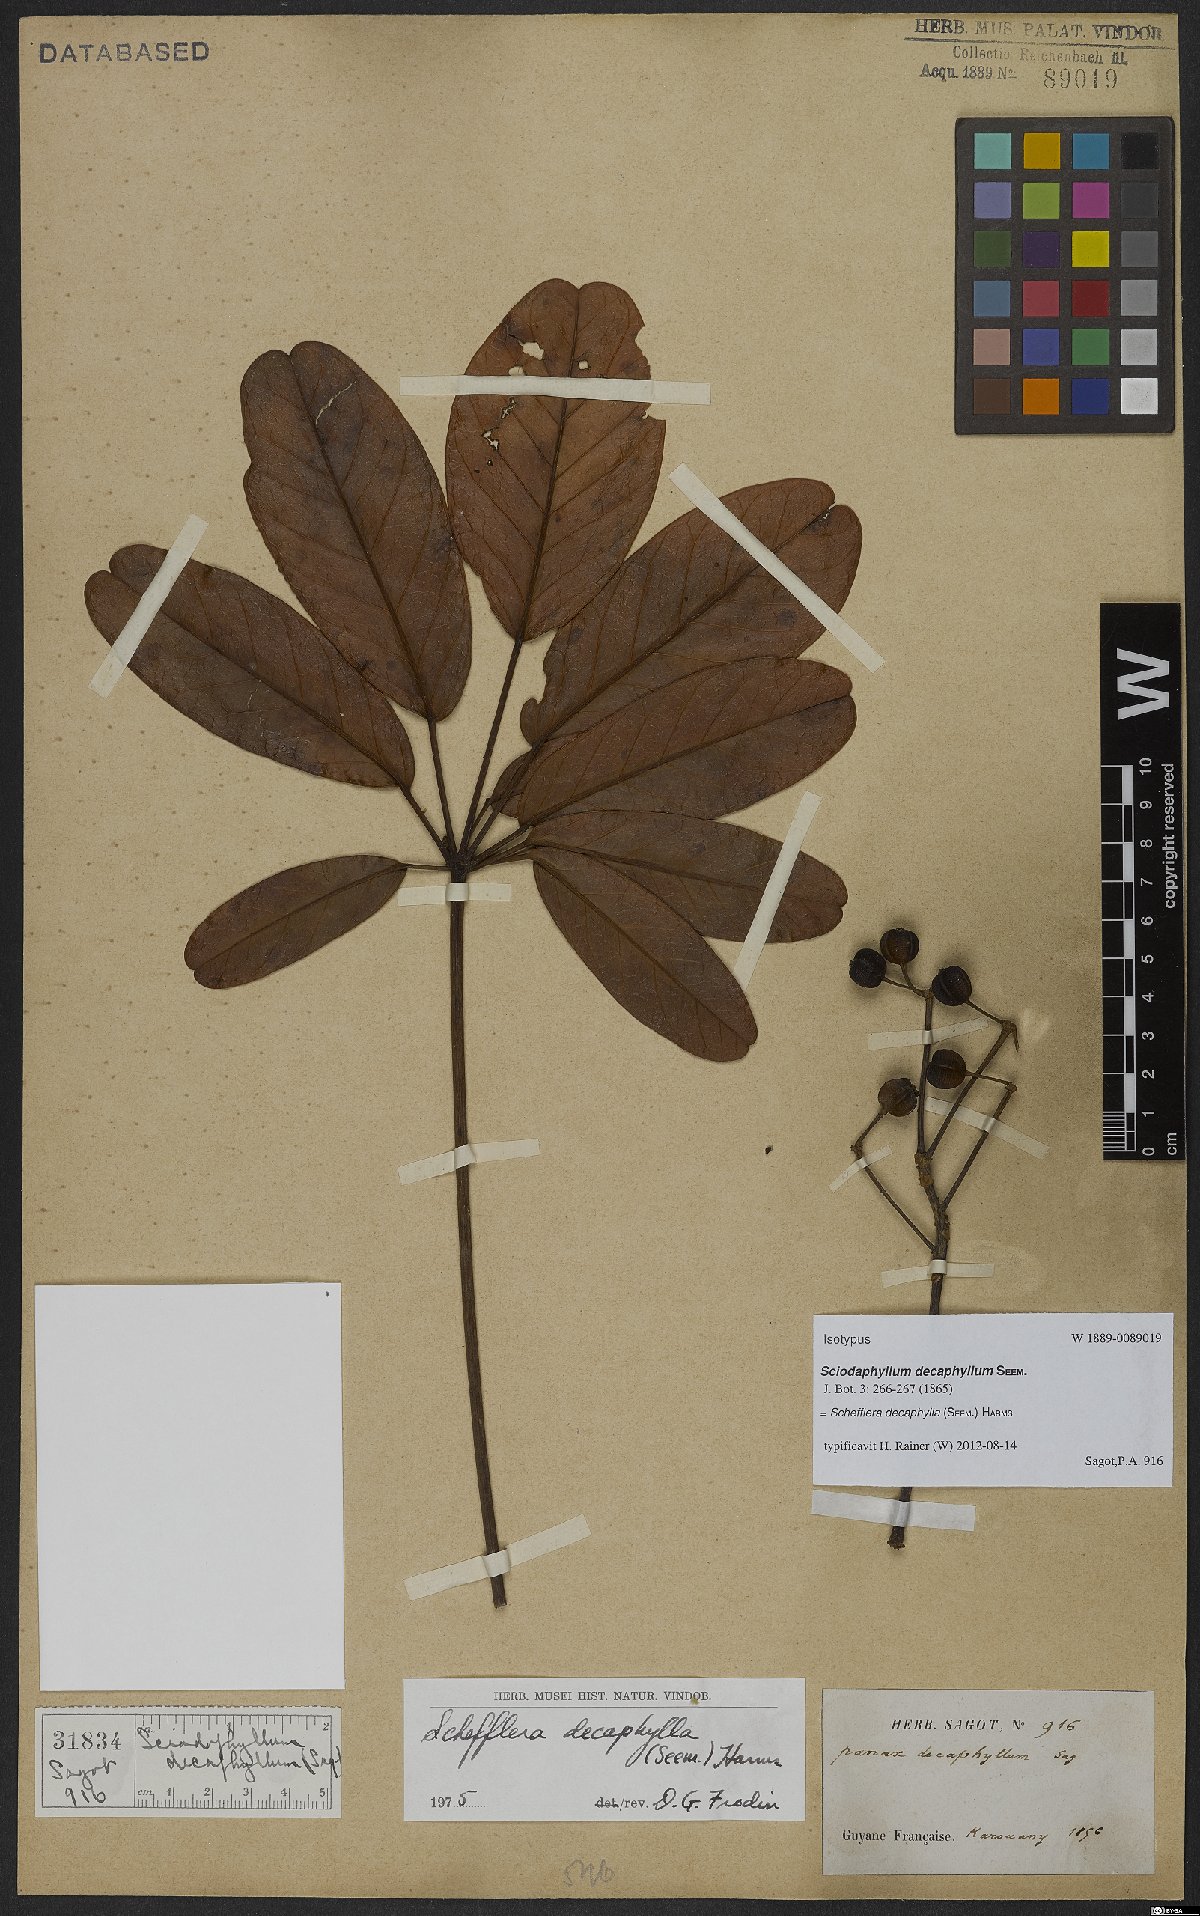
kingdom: Plantae
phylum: Tracheophyta
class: Magnoliopsida
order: Apiales
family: Araliaceae
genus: Didymopanax
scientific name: Didymopanax decaphyllus
